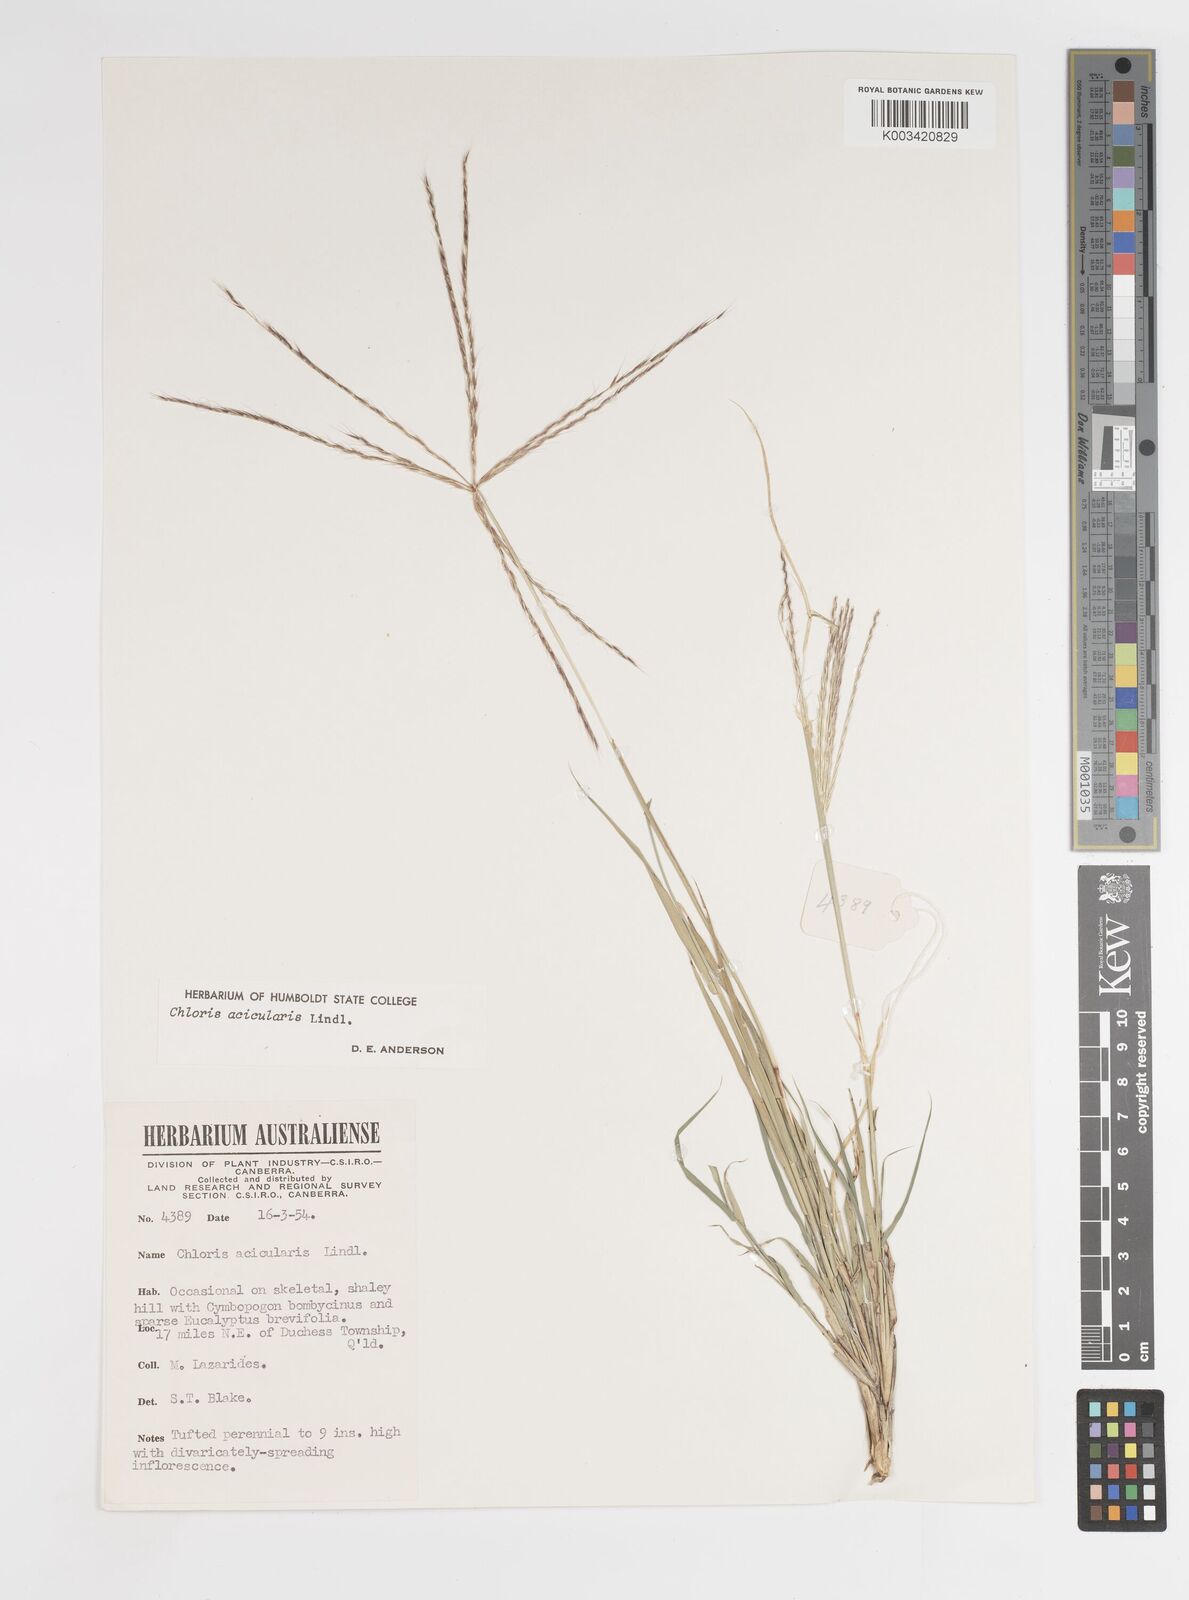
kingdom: Plantae
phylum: Tracheophyta
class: Liliopsida
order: Poales
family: Poaceae
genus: Enteropogon
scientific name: Enteropogon acicularis
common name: Curly windmill grass
